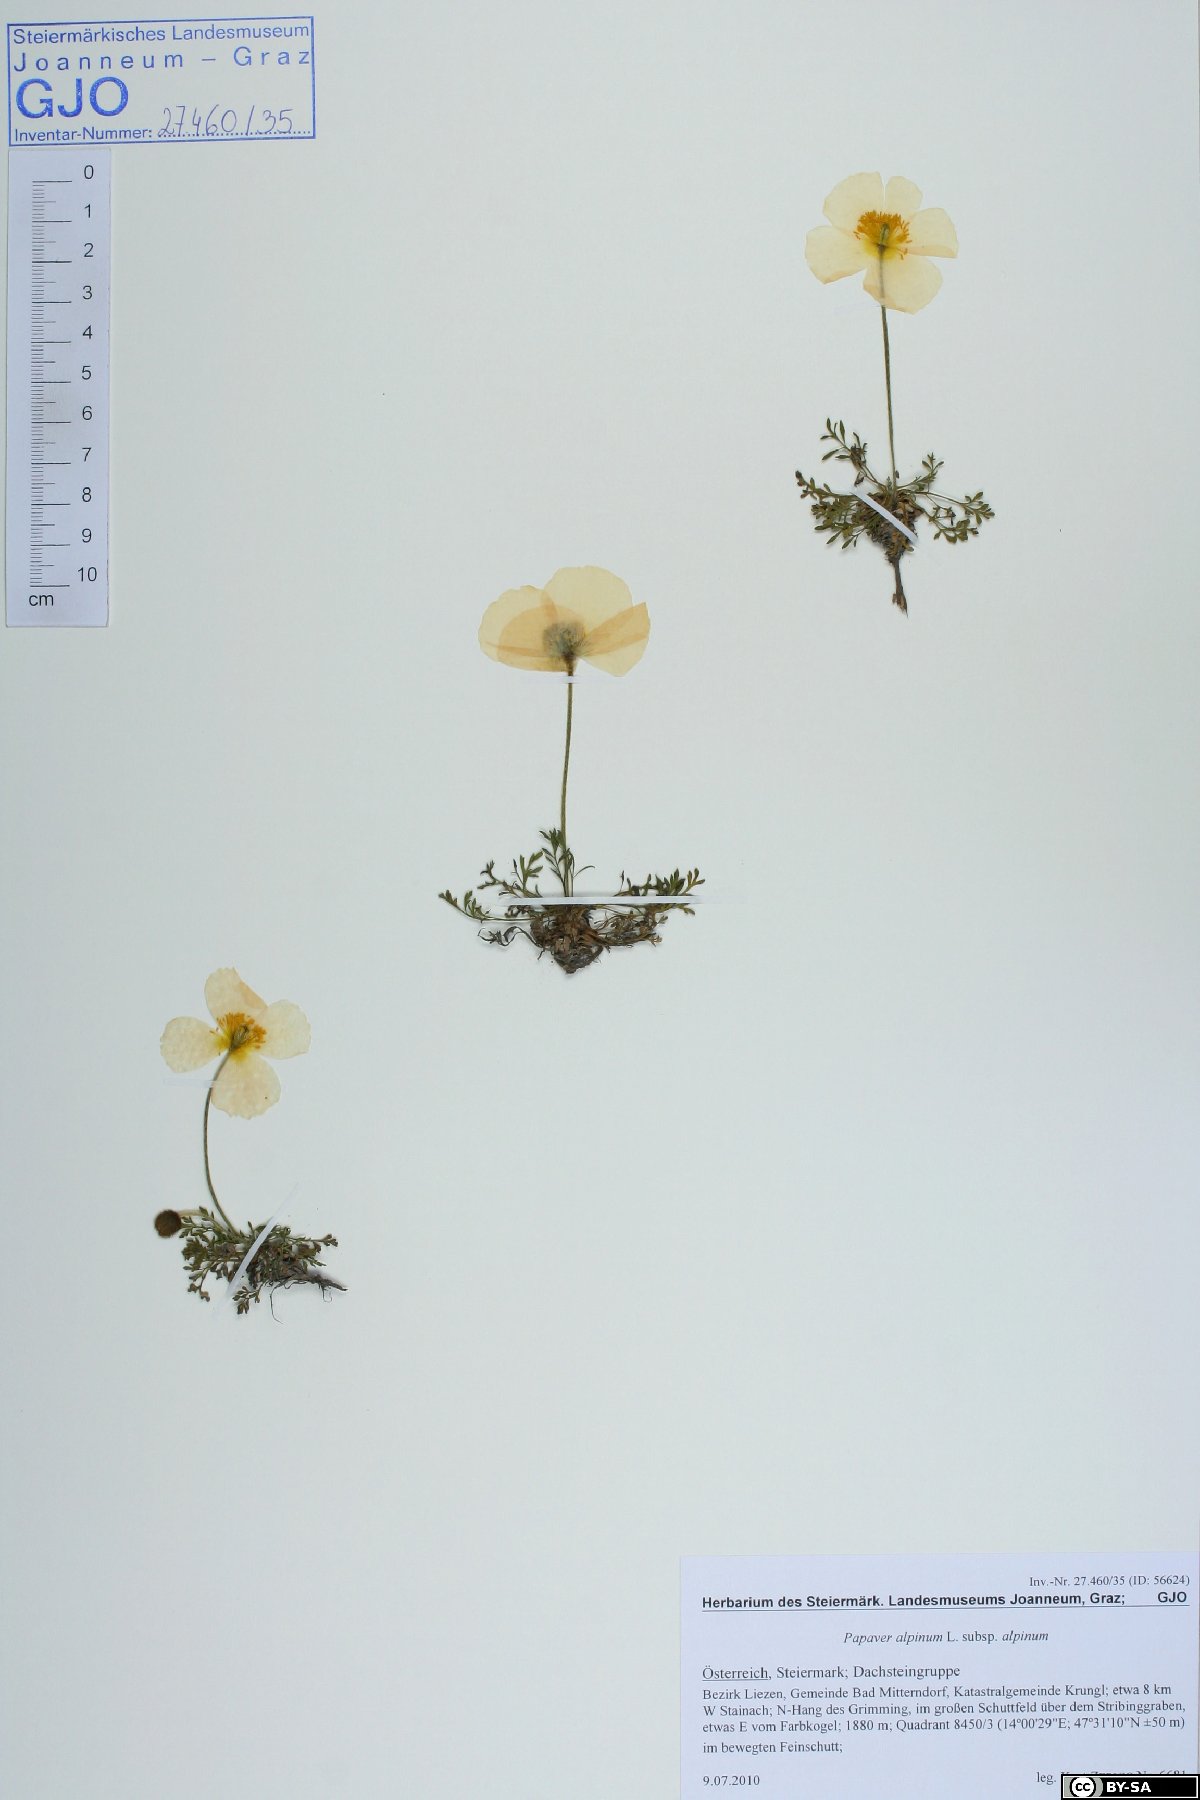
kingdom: Plantae
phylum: Tracheophyta
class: Magnoliopsida
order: Ranunculales
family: Papaveraceae
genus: Papaver
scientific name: Papaver alpinum
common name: Austrian poppy
